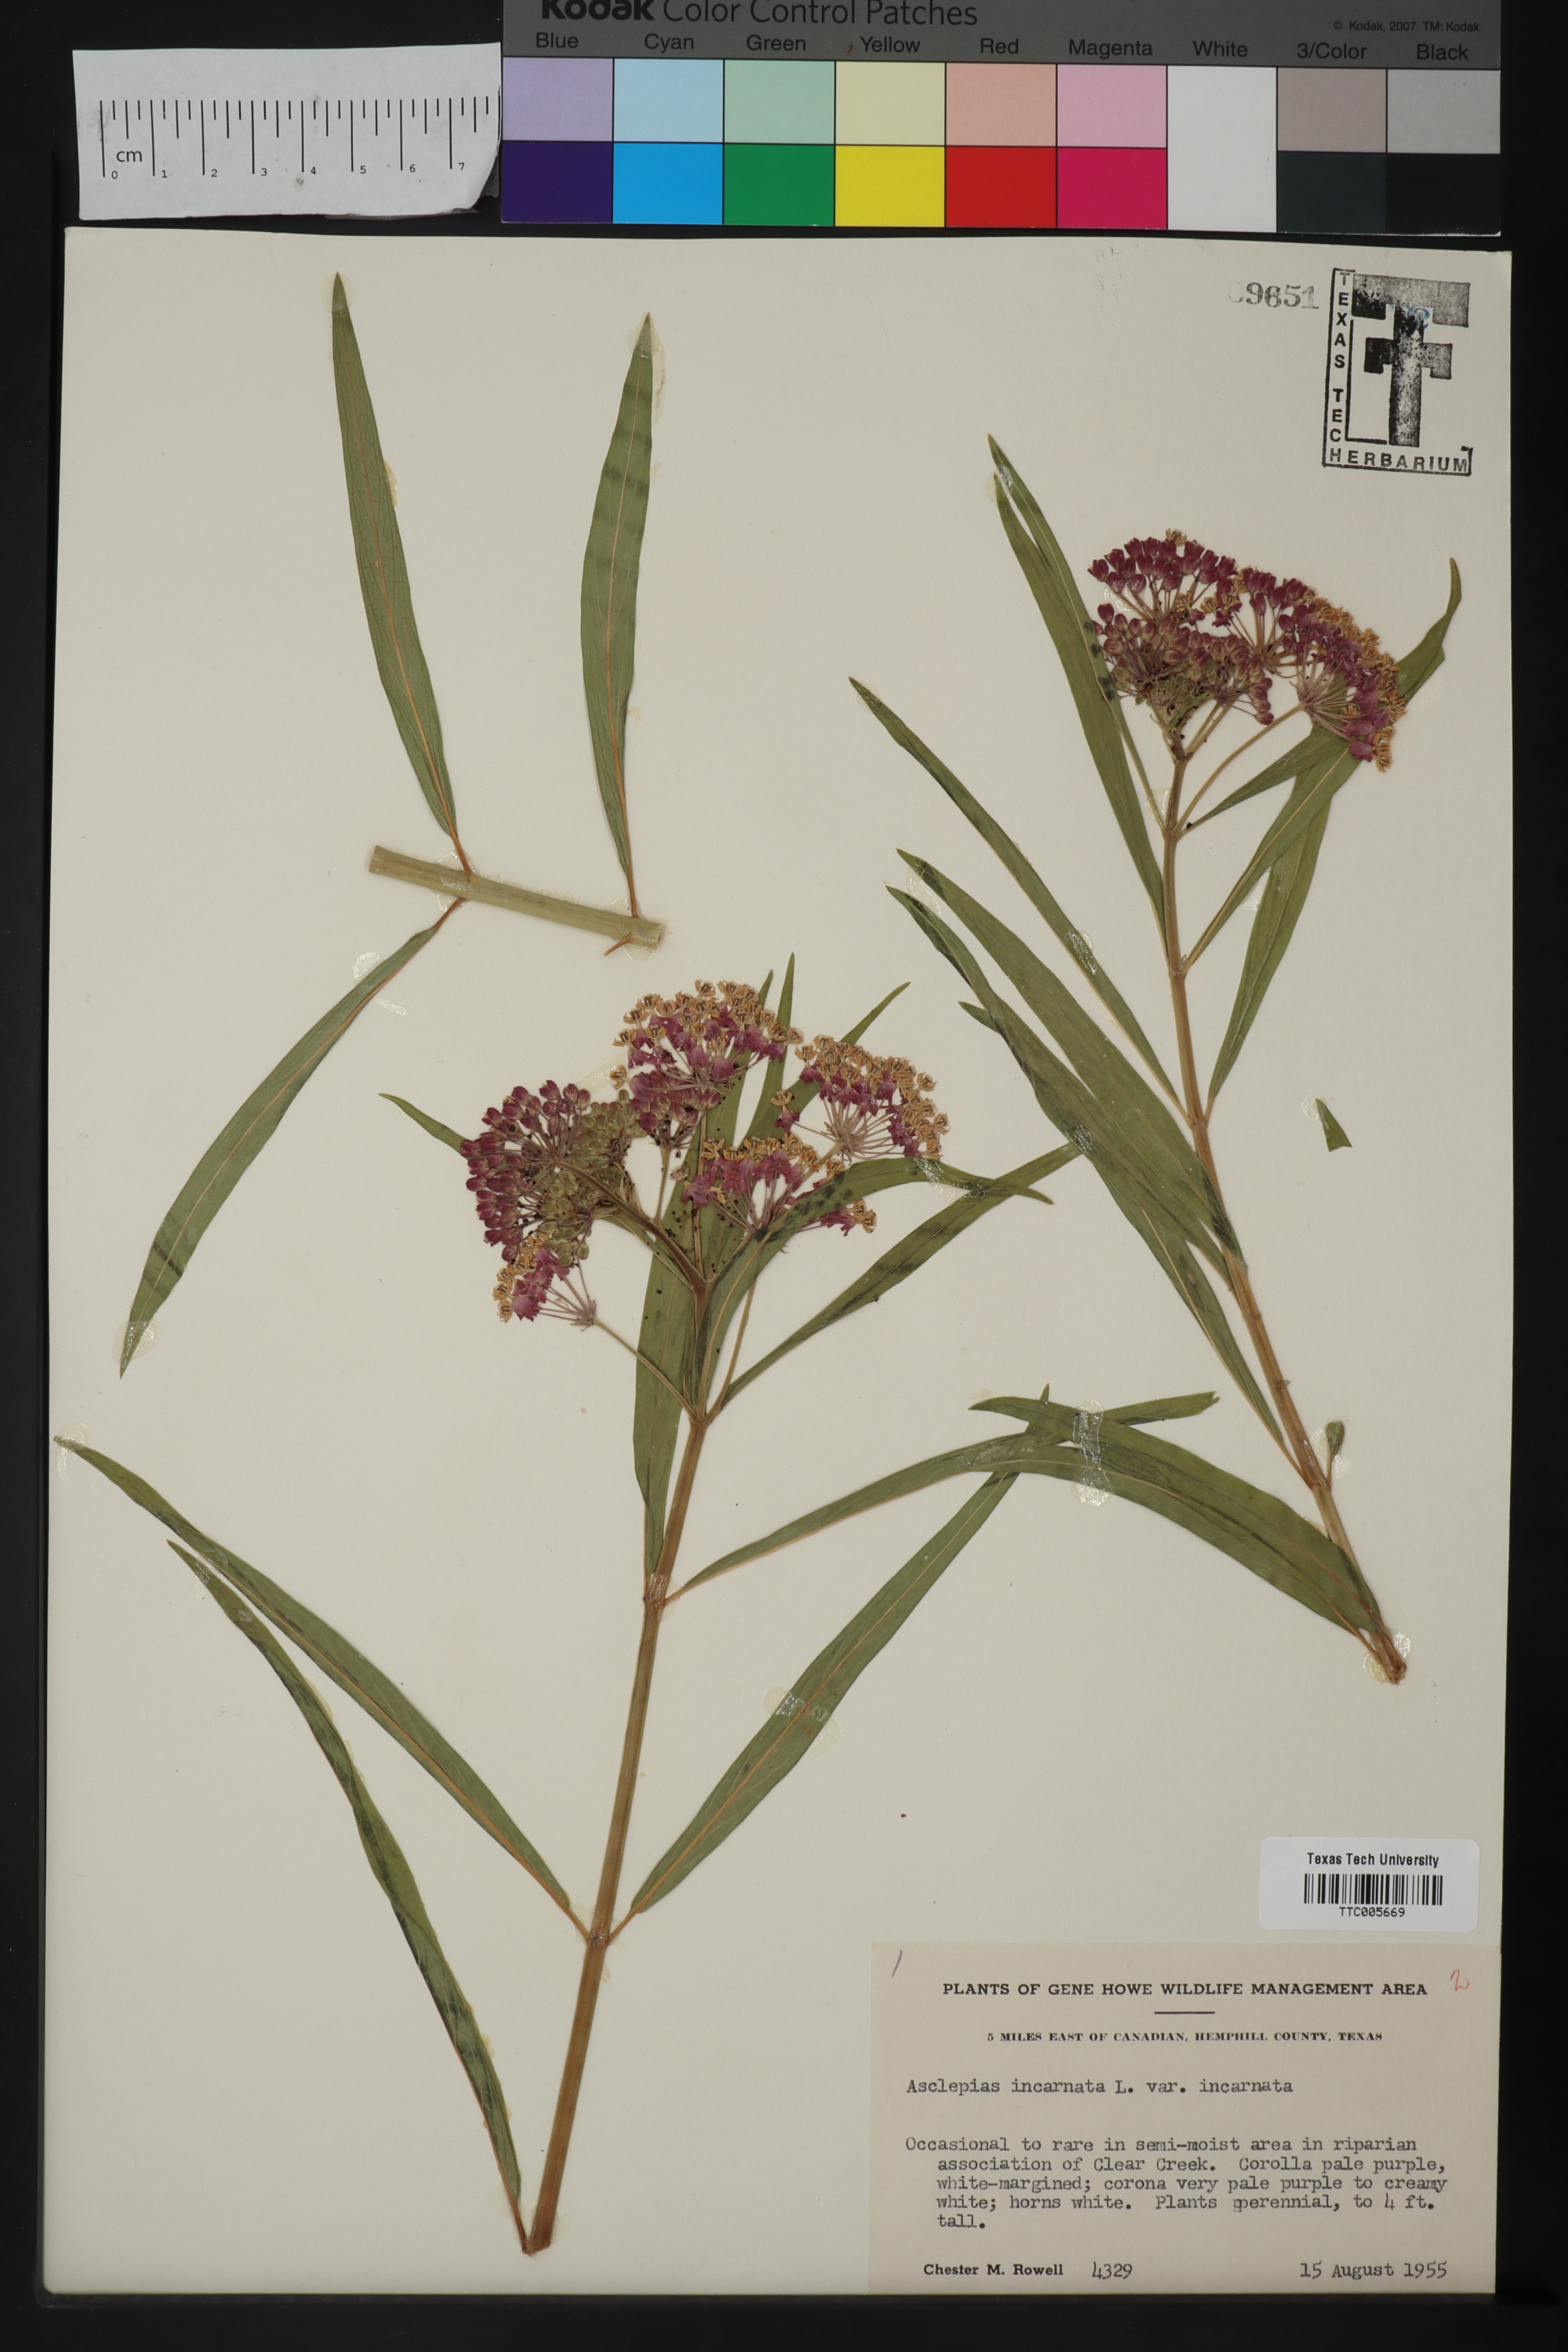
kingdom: Plantae
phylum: Tracheophyta
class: Magnoliopsida
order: Gentianales
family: Apocynaceae
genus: Asclepias
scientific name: Asclepias incarnata
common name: Swamp milkweed
